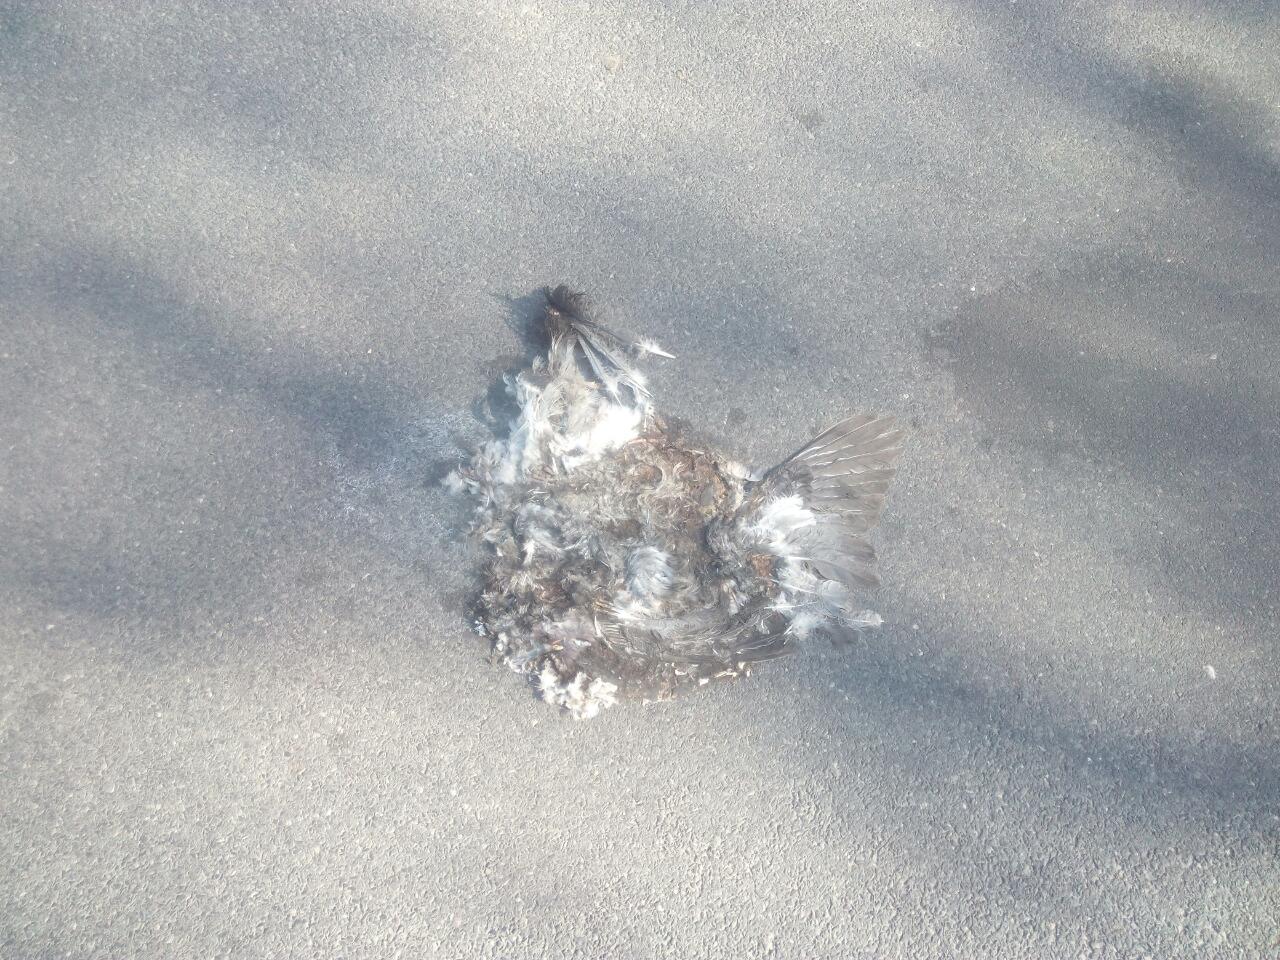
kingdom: Animalia
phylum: Chordata
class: Aves
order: Columbiformes
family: Columbidae
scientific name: Columbidae
